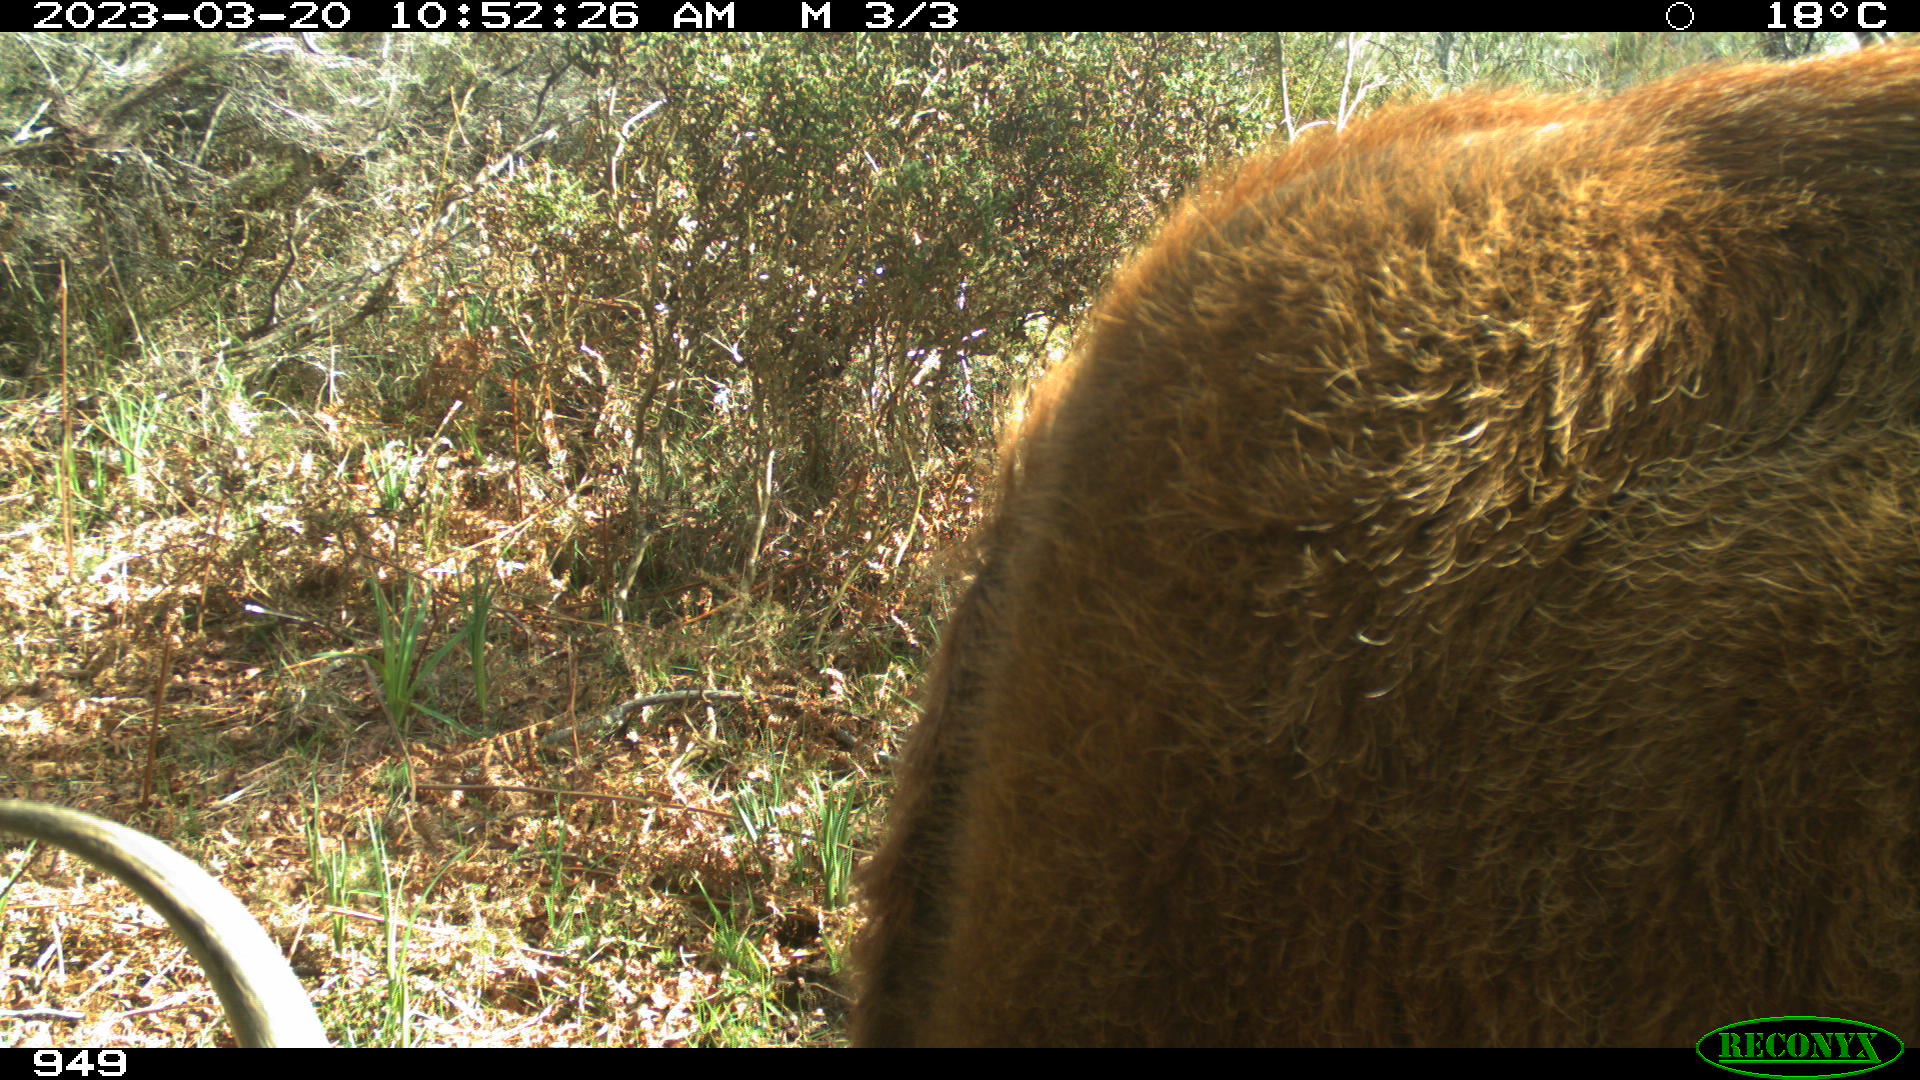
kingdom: Animalia
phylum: Chordata
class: Mammalia
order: Artiodactyla
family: Bovidae
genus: Bos
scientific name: Bos taurus
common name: Domesticated cattle
